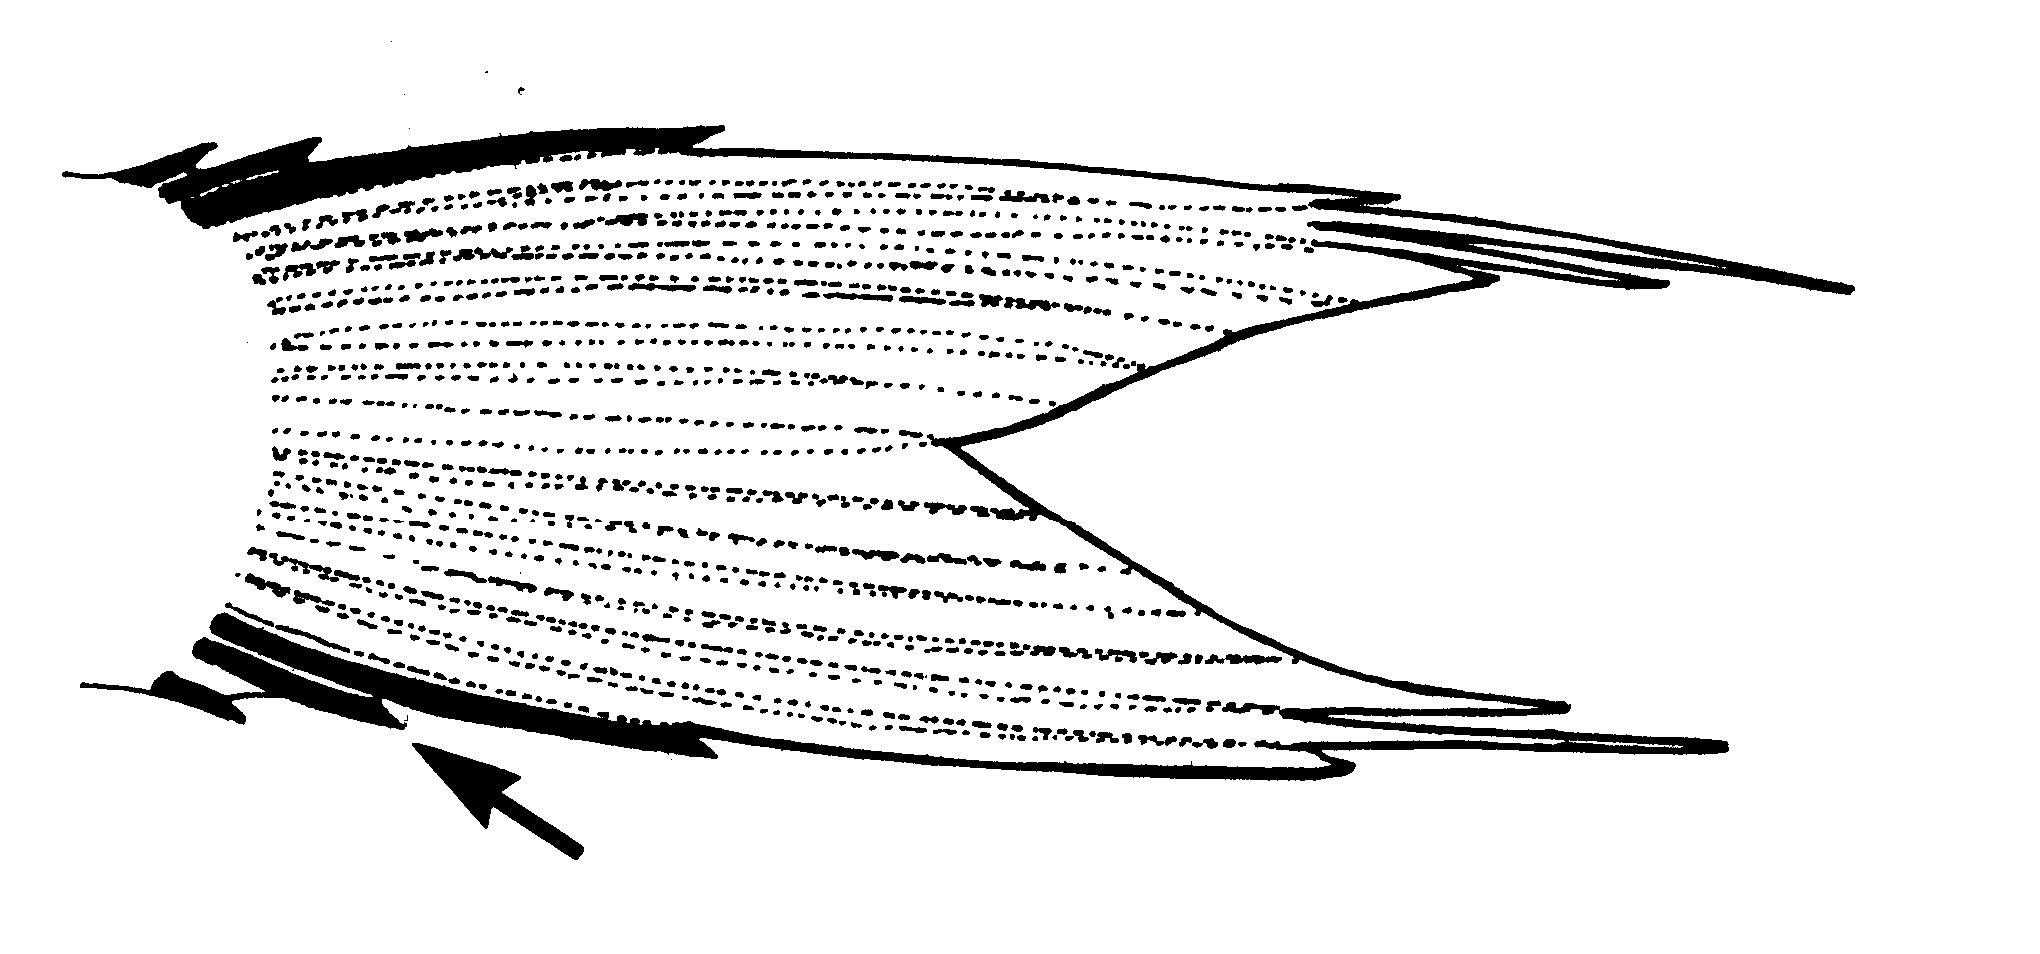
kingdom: Animalia
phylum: Chordata
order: Perciformes
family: Pomacentridae
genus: Chromis
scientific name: Chromis
